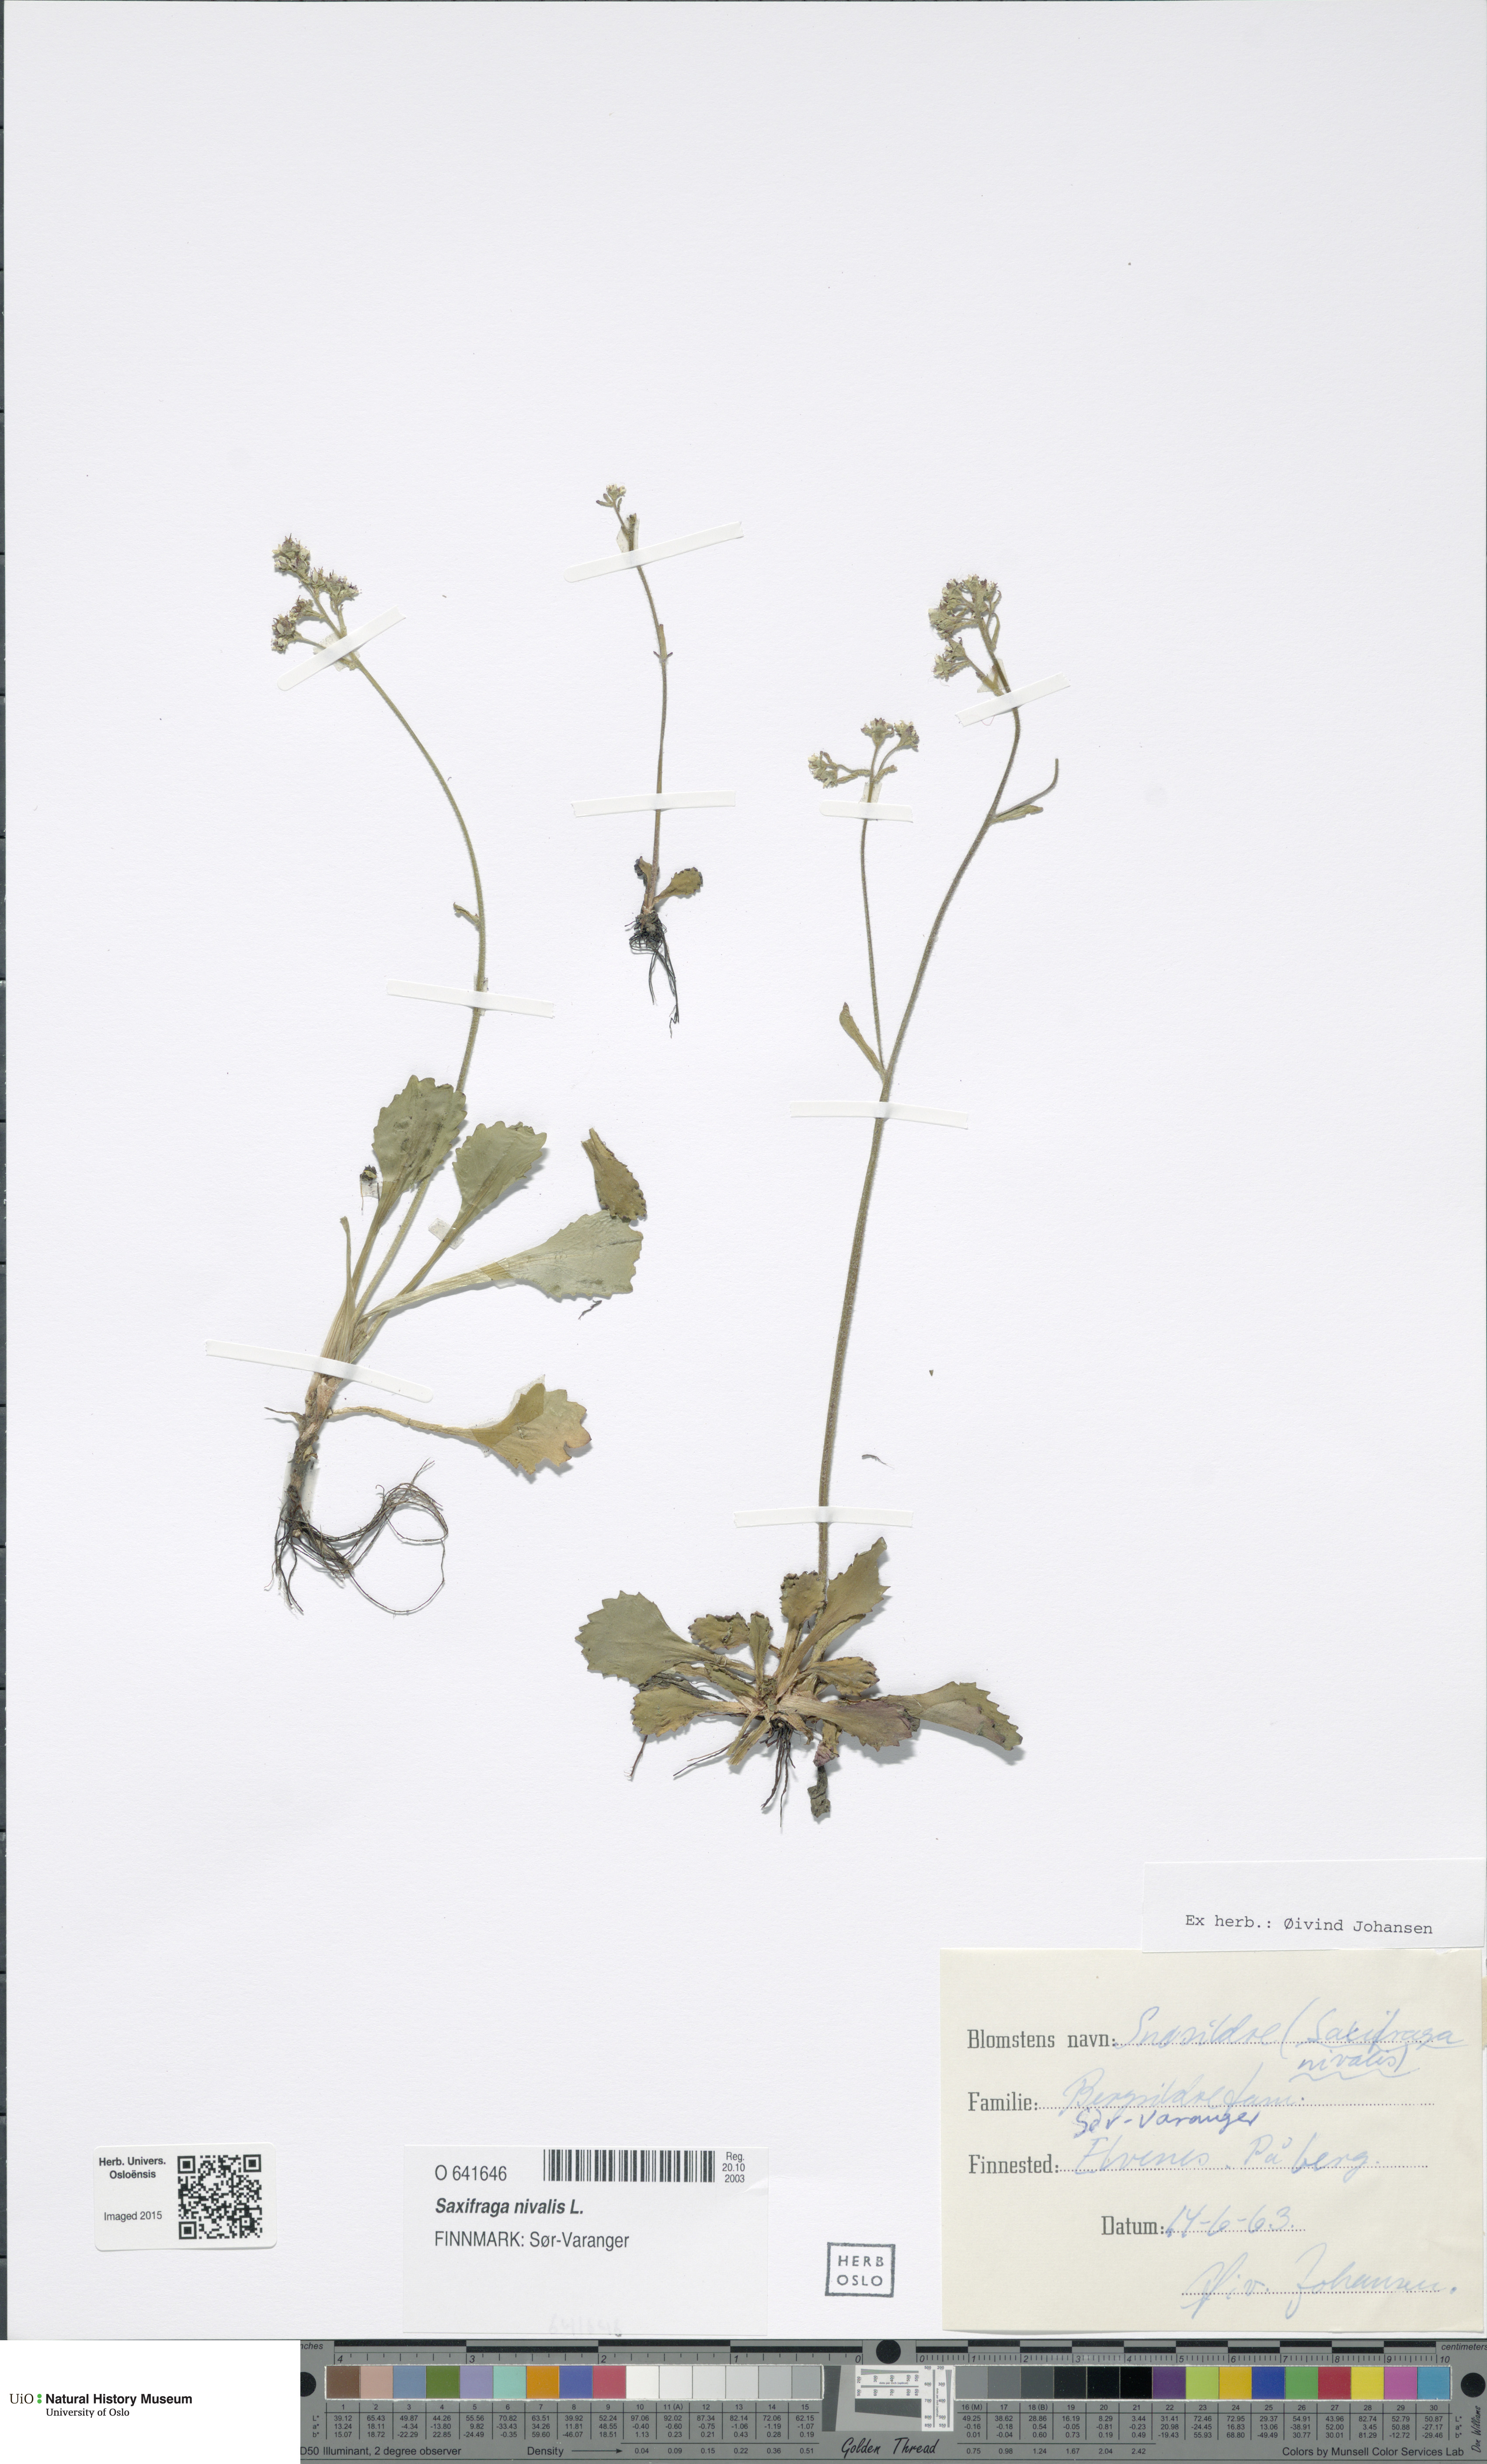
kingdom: Plantae
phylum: Tracheophyta
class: Magnoliopsida
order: Saxifragales
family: Saxifragaceae
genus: Micranthes
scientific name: Micranthes nivalis
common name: Alpine saxifrage
